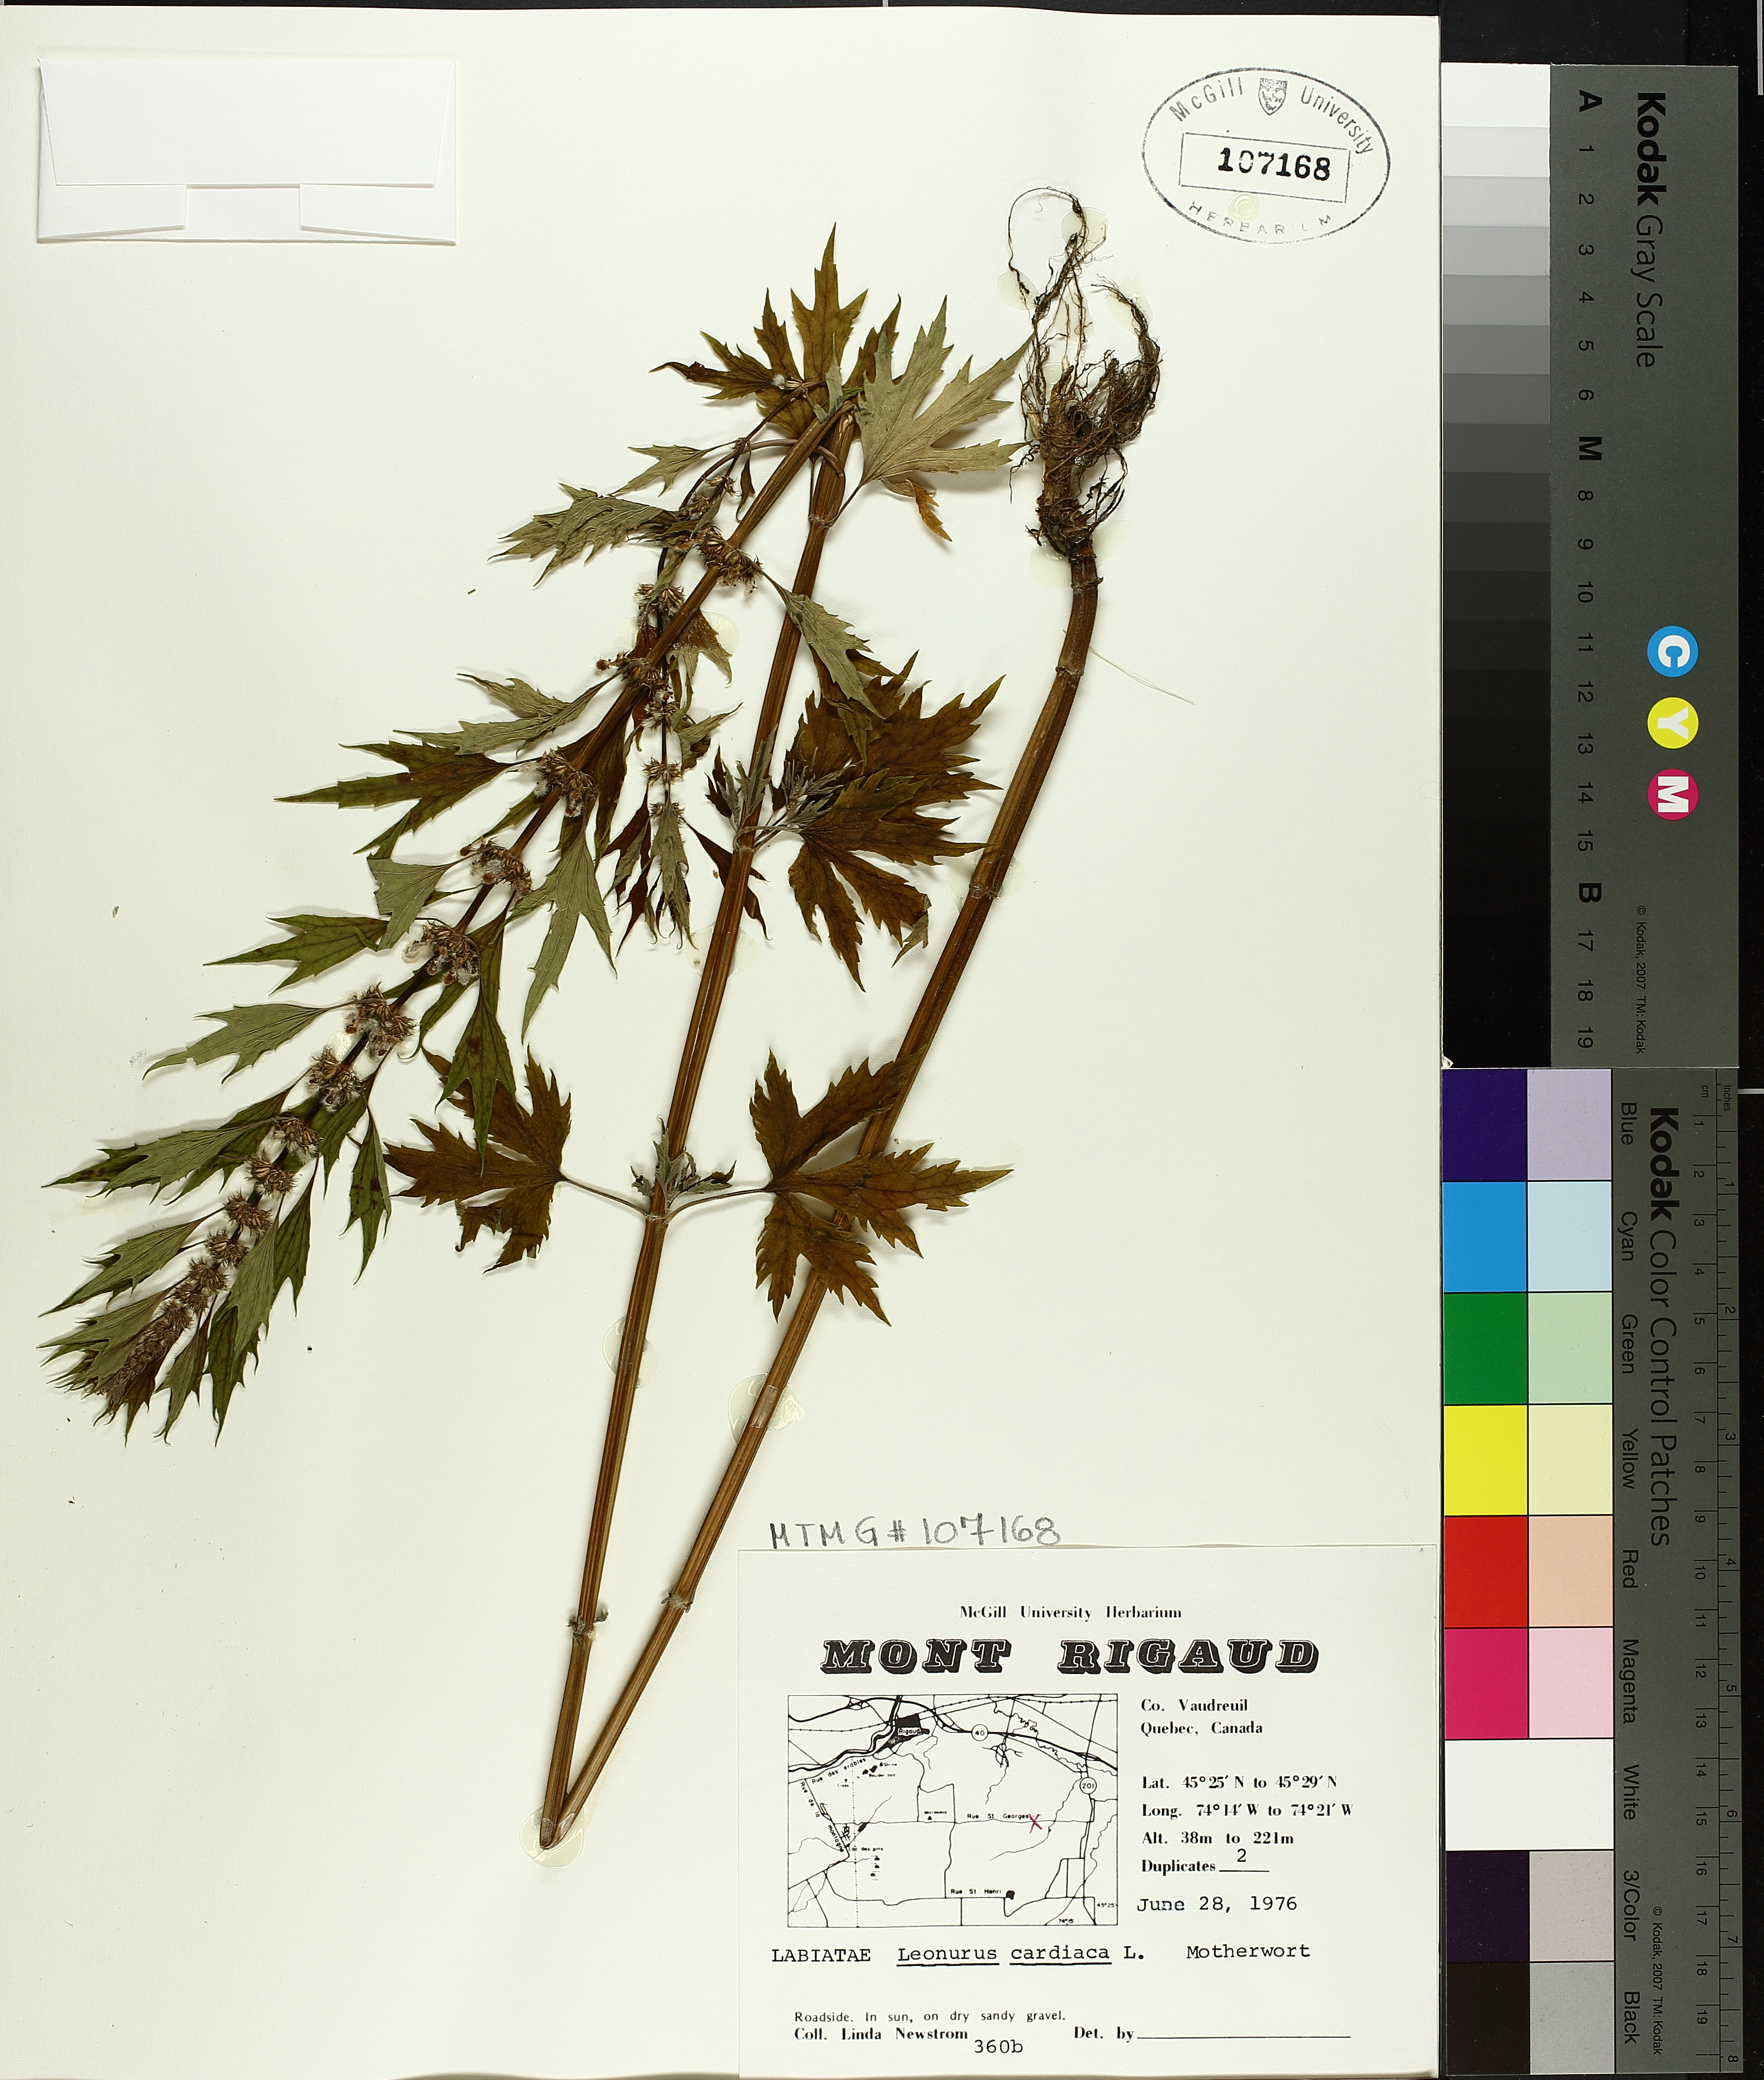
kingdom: Plantae
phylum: Tracheophyta
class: Magnoliopsida
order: Lamiales
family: Lamiaceae
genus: Leonurus
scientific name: Leonurus cardiaca
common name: Motherwort
